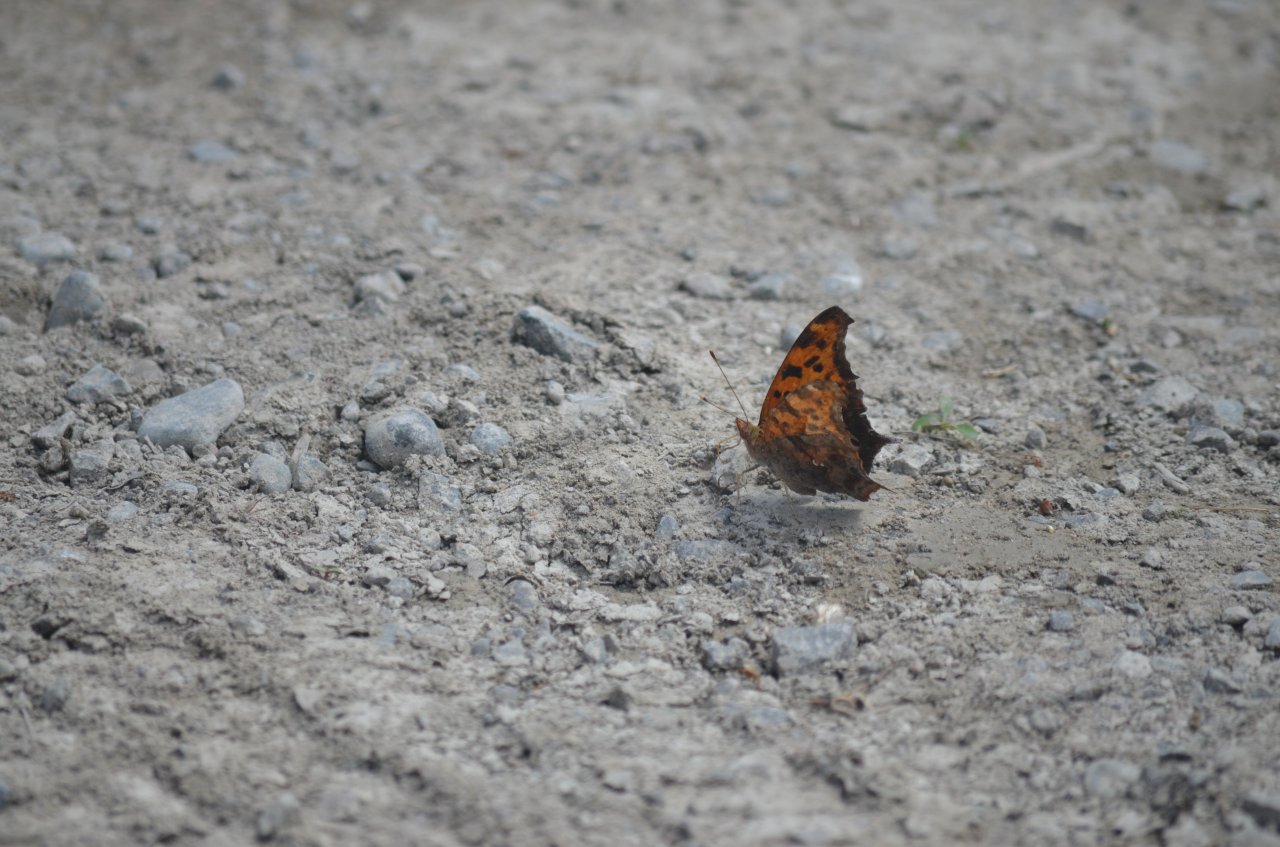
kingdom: Animalia
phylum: Arthropoda
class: Insecta
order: Lepidoptera
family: Nymphalidae
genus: Polygonia
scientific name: Polygonia interrogationis
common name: Question Mark
